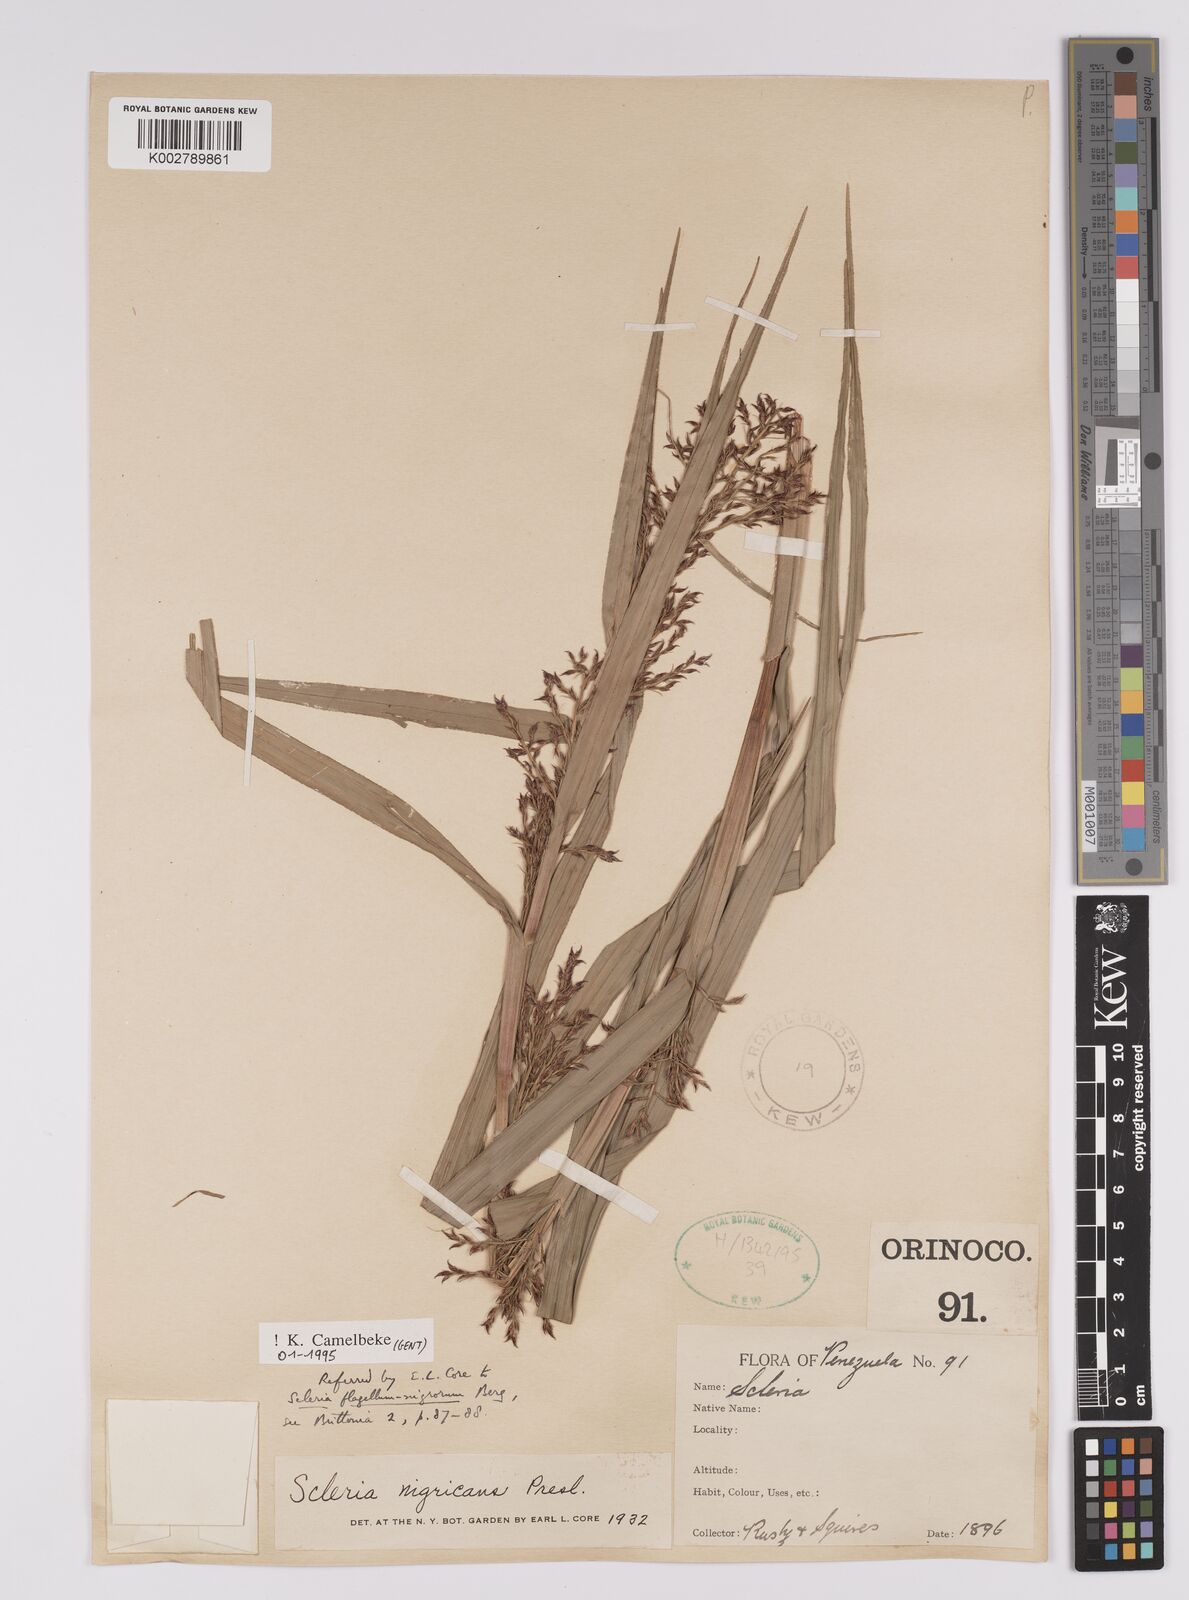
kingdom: Plantae
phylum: Tracheophyta
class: Liliopsida
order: Poales
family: Cyperaceae
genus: Scleria
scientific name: Scleria flagellum-nigrorum
